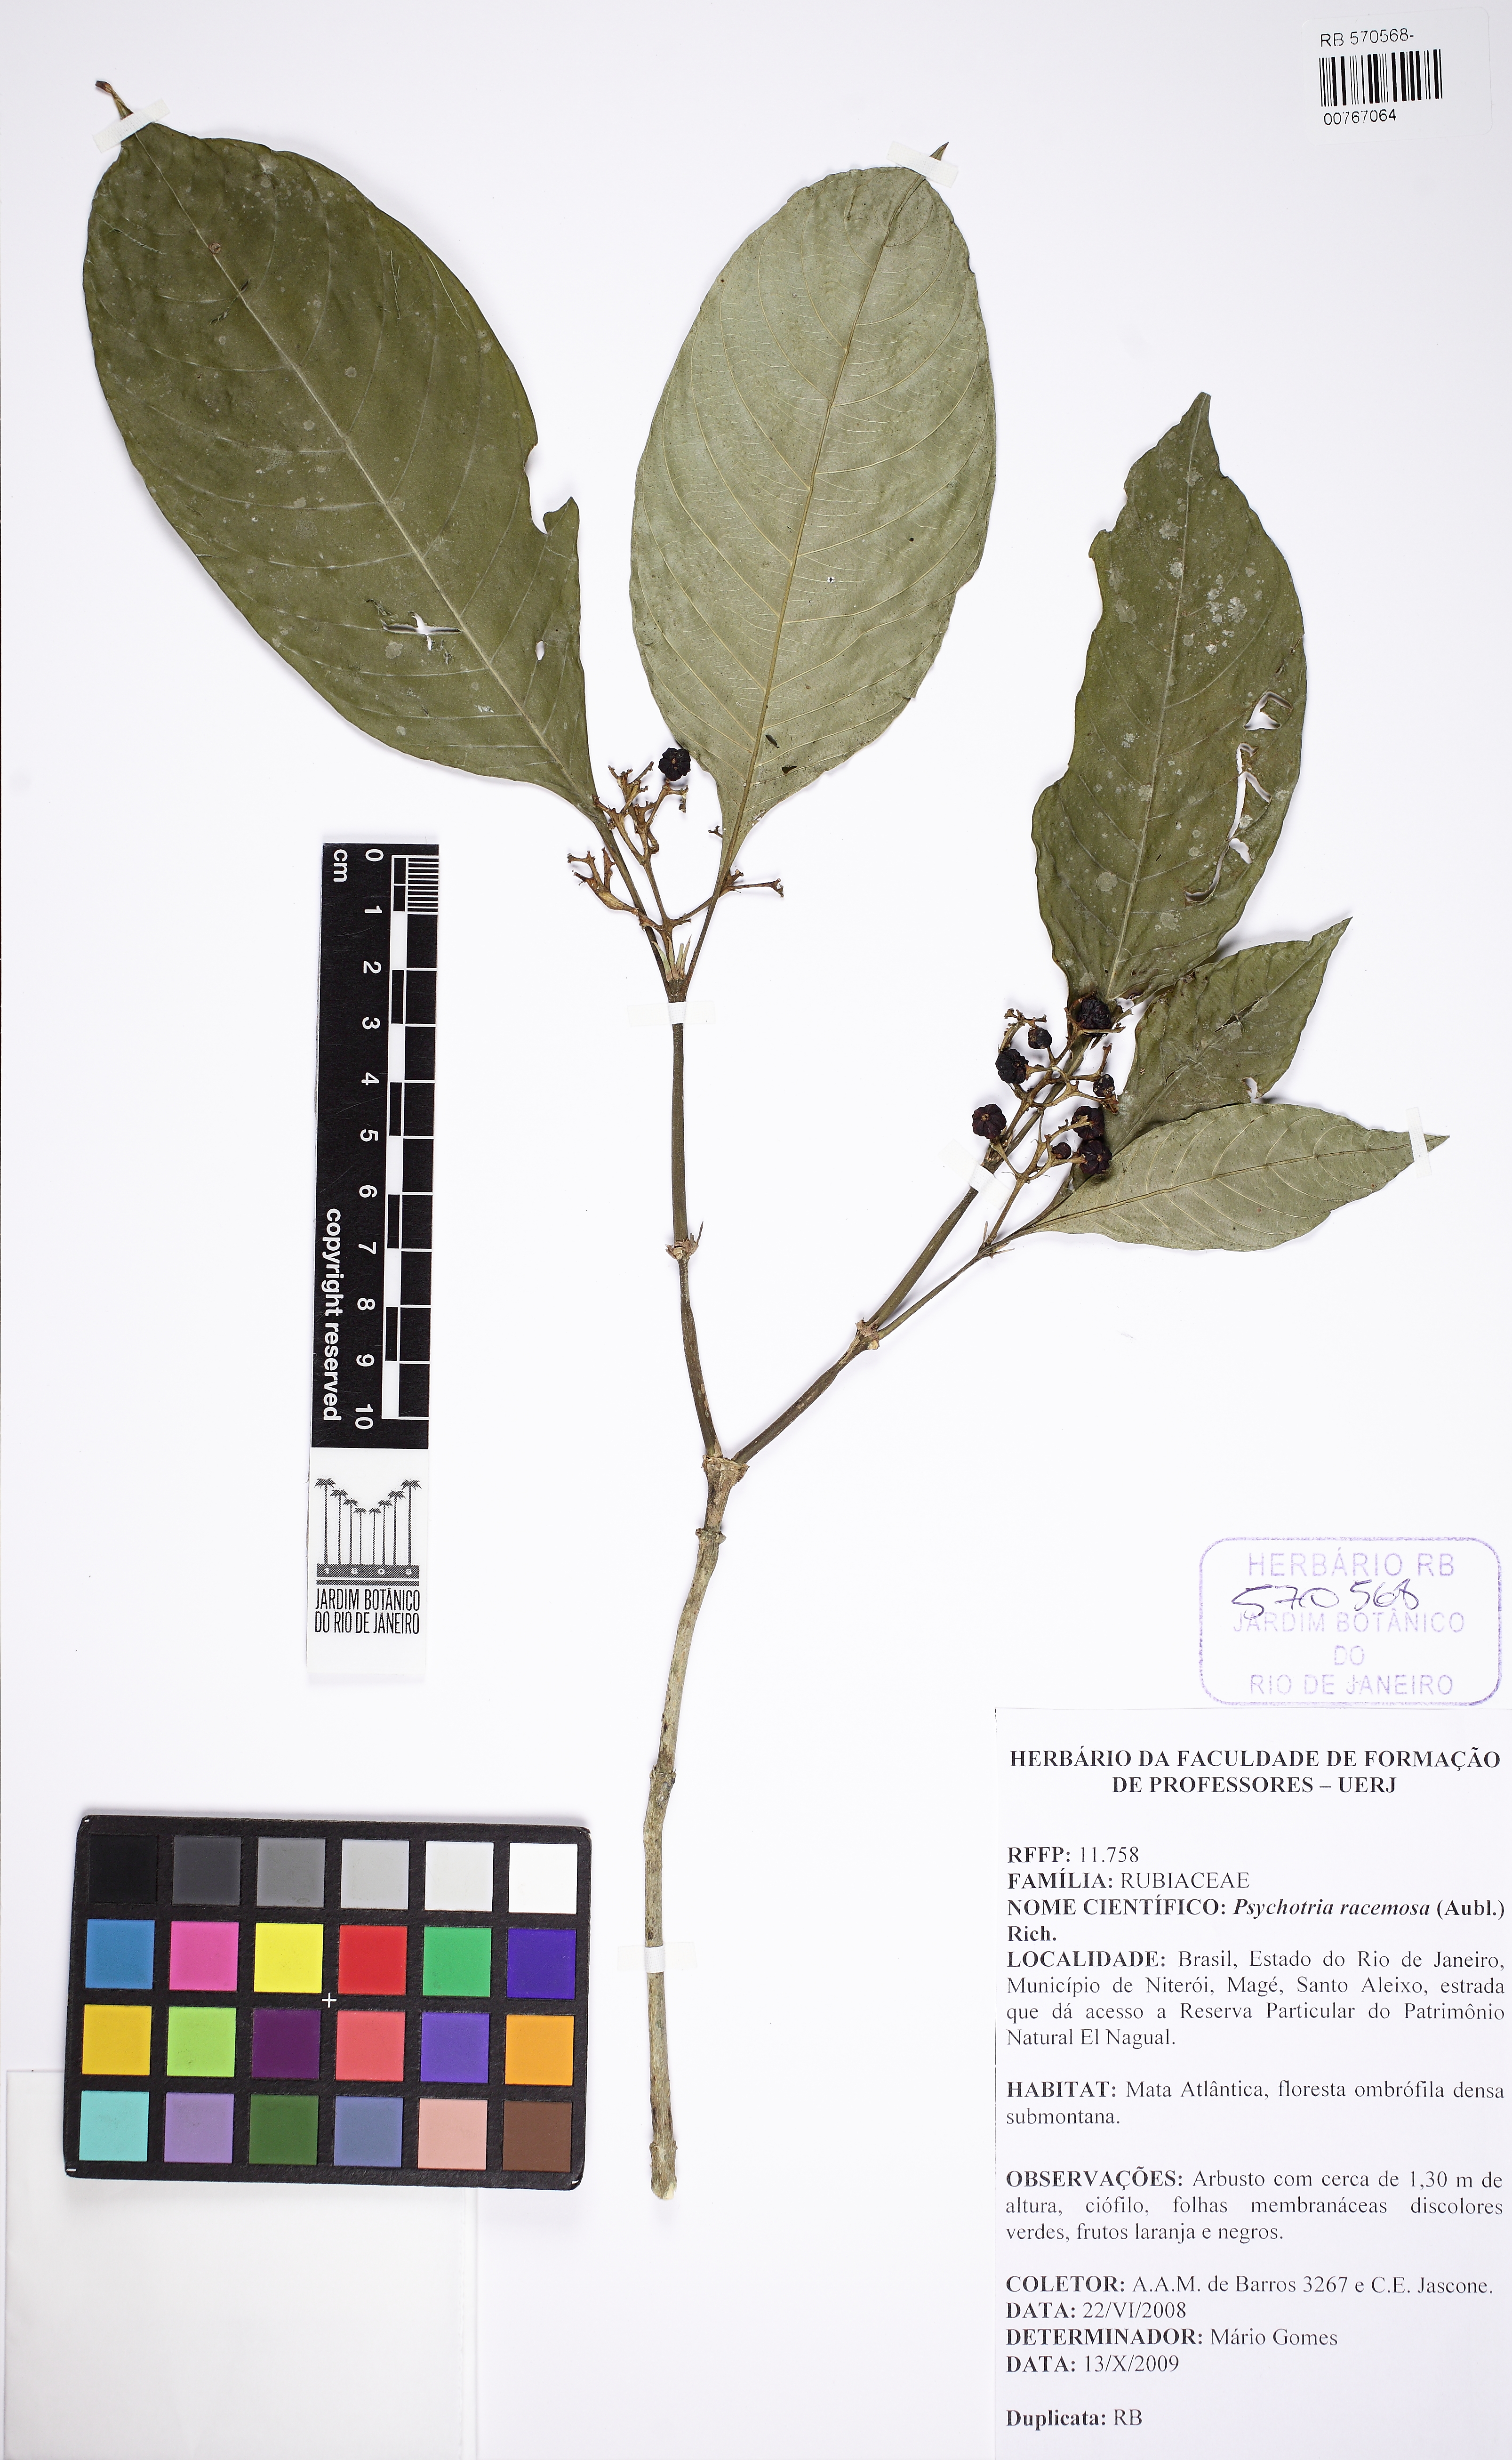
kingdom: Plantae
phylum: Tracheophyta
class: Magnoliopsida
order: Gentianales
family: Rubiaceae
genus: Palicourea
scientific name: Palicourea racemosa
